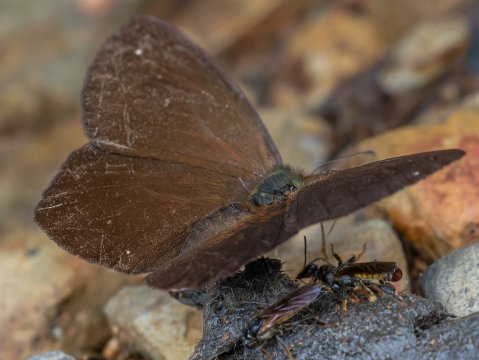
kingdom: Animalia
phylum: Arthropoda
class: Insecta
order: Lepidoptera
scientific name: Lepidoptera
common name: Butterflies
